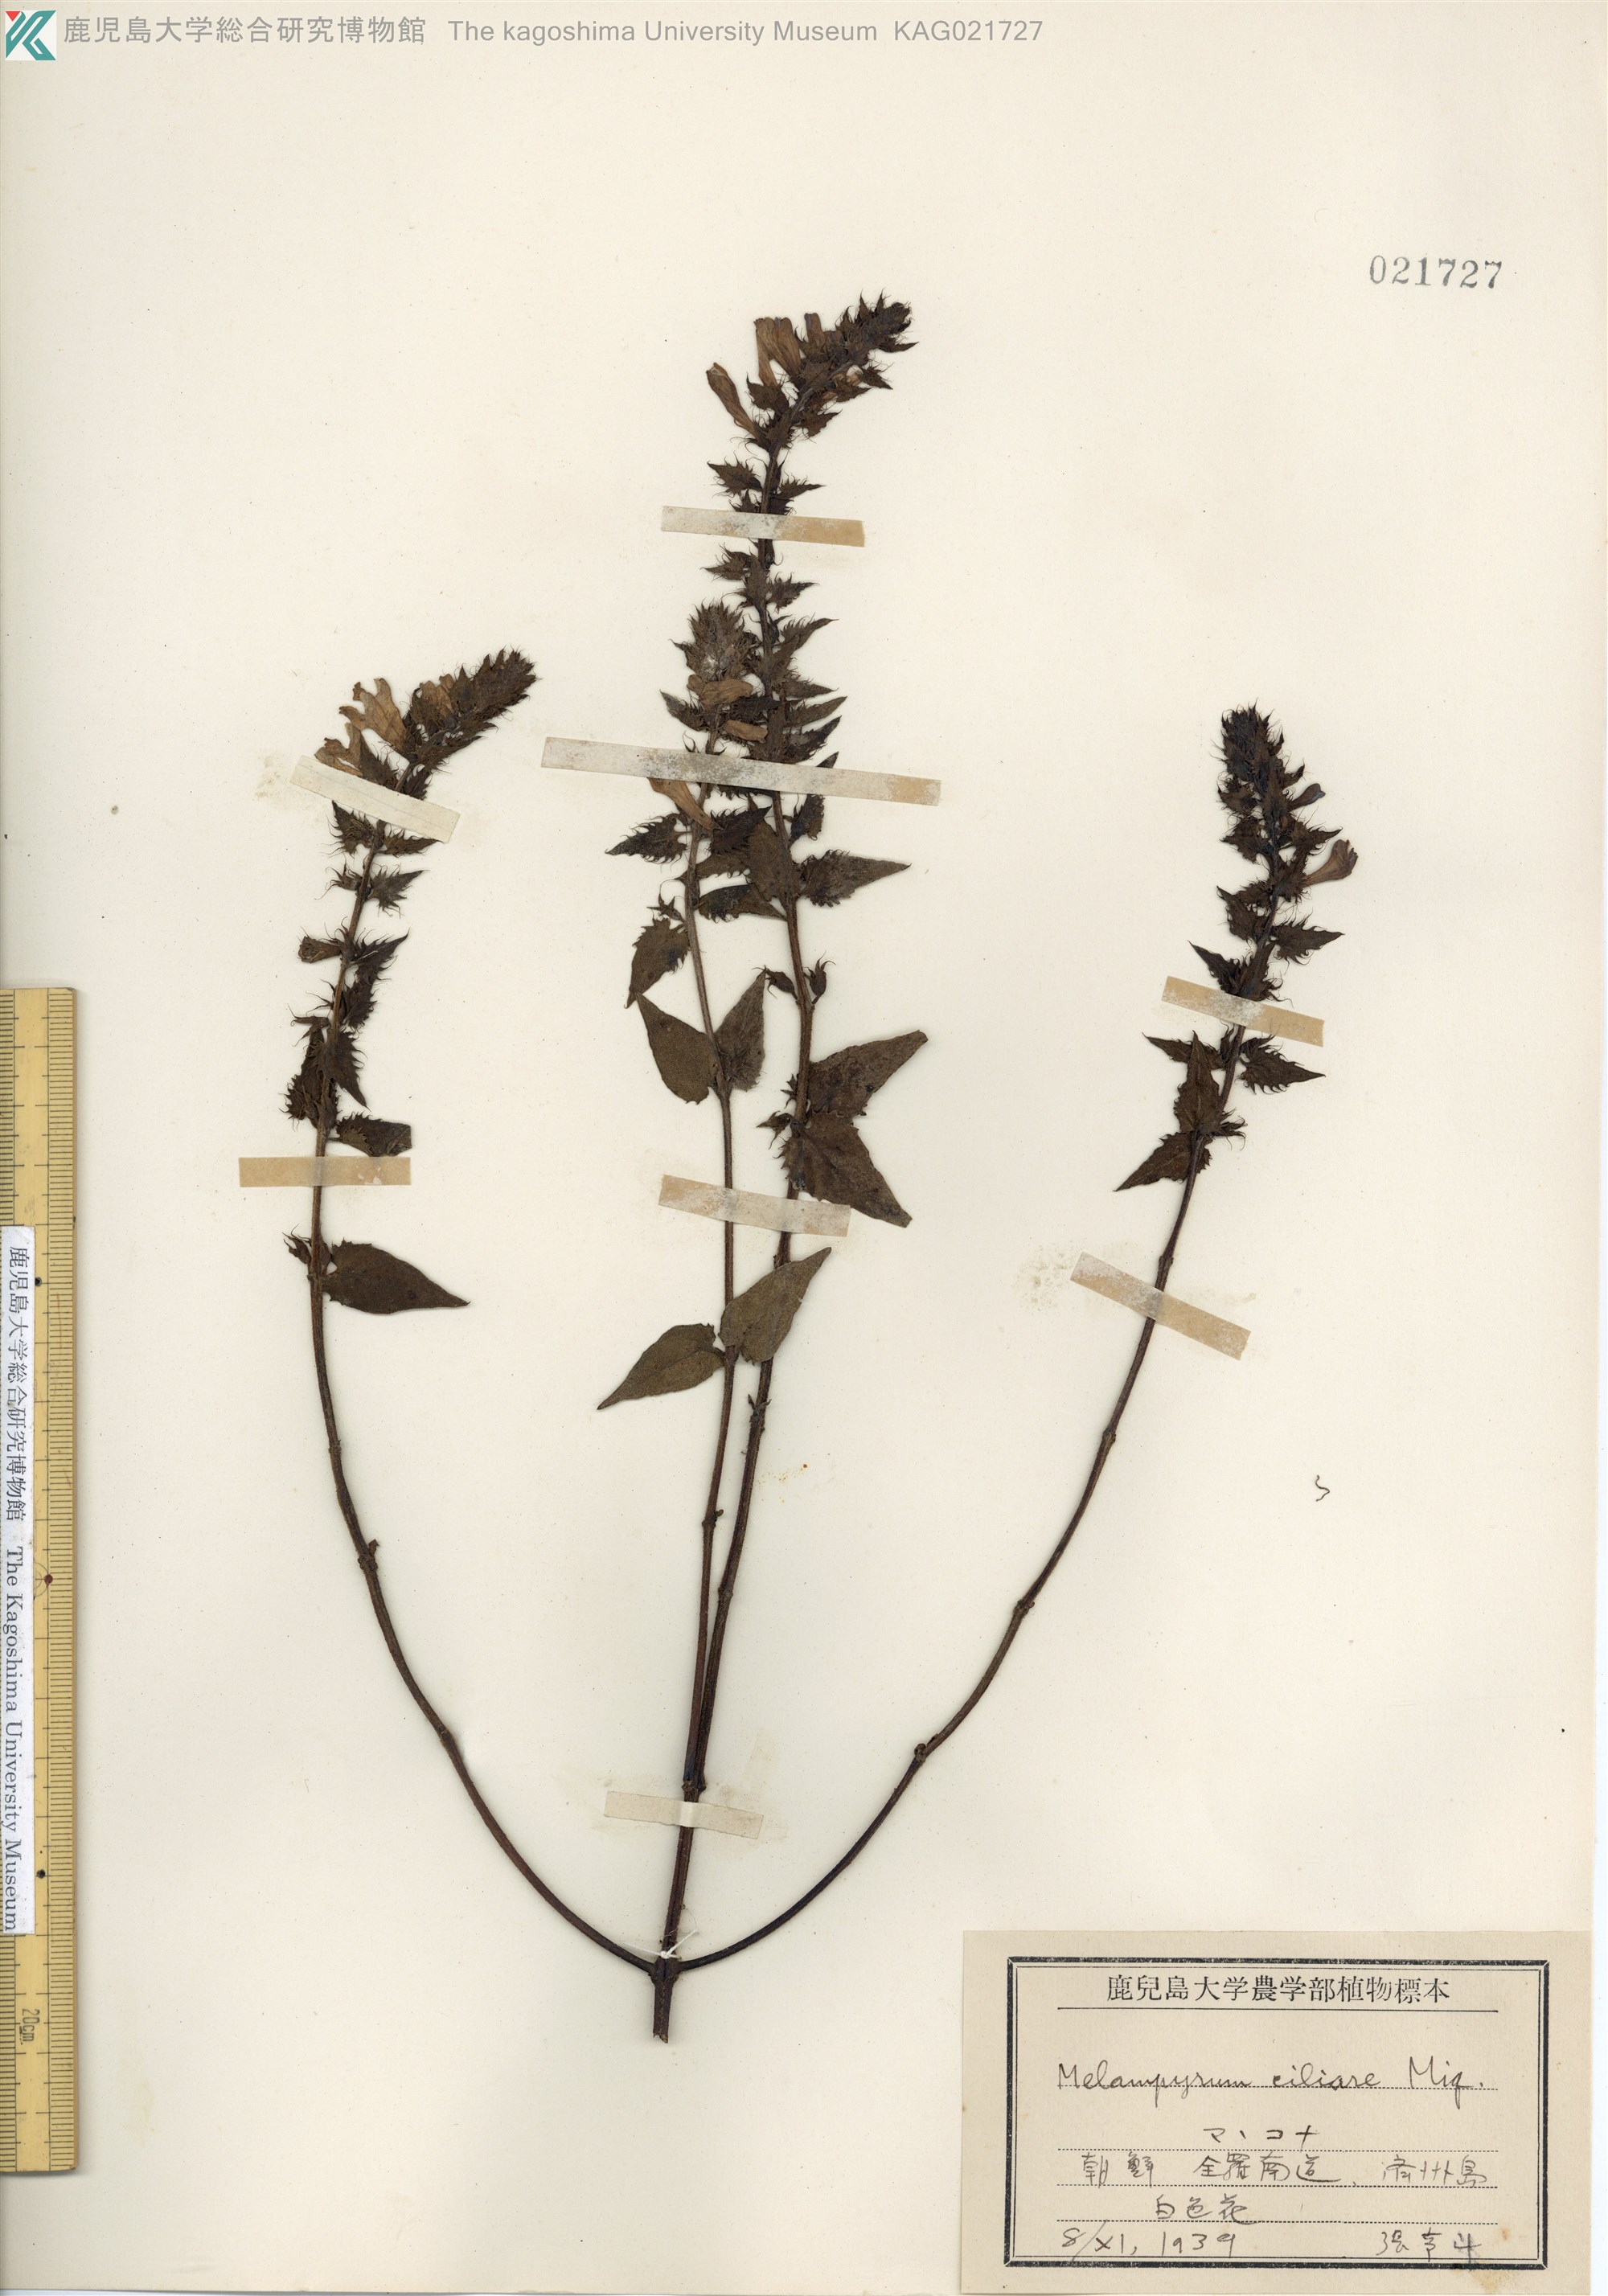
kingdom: Plantae
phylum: Tracheophyta
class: Magnoliopsida
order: Lamiales
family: Orobanchaceae
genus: Melampyrum
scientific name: Melampyrum roseum
